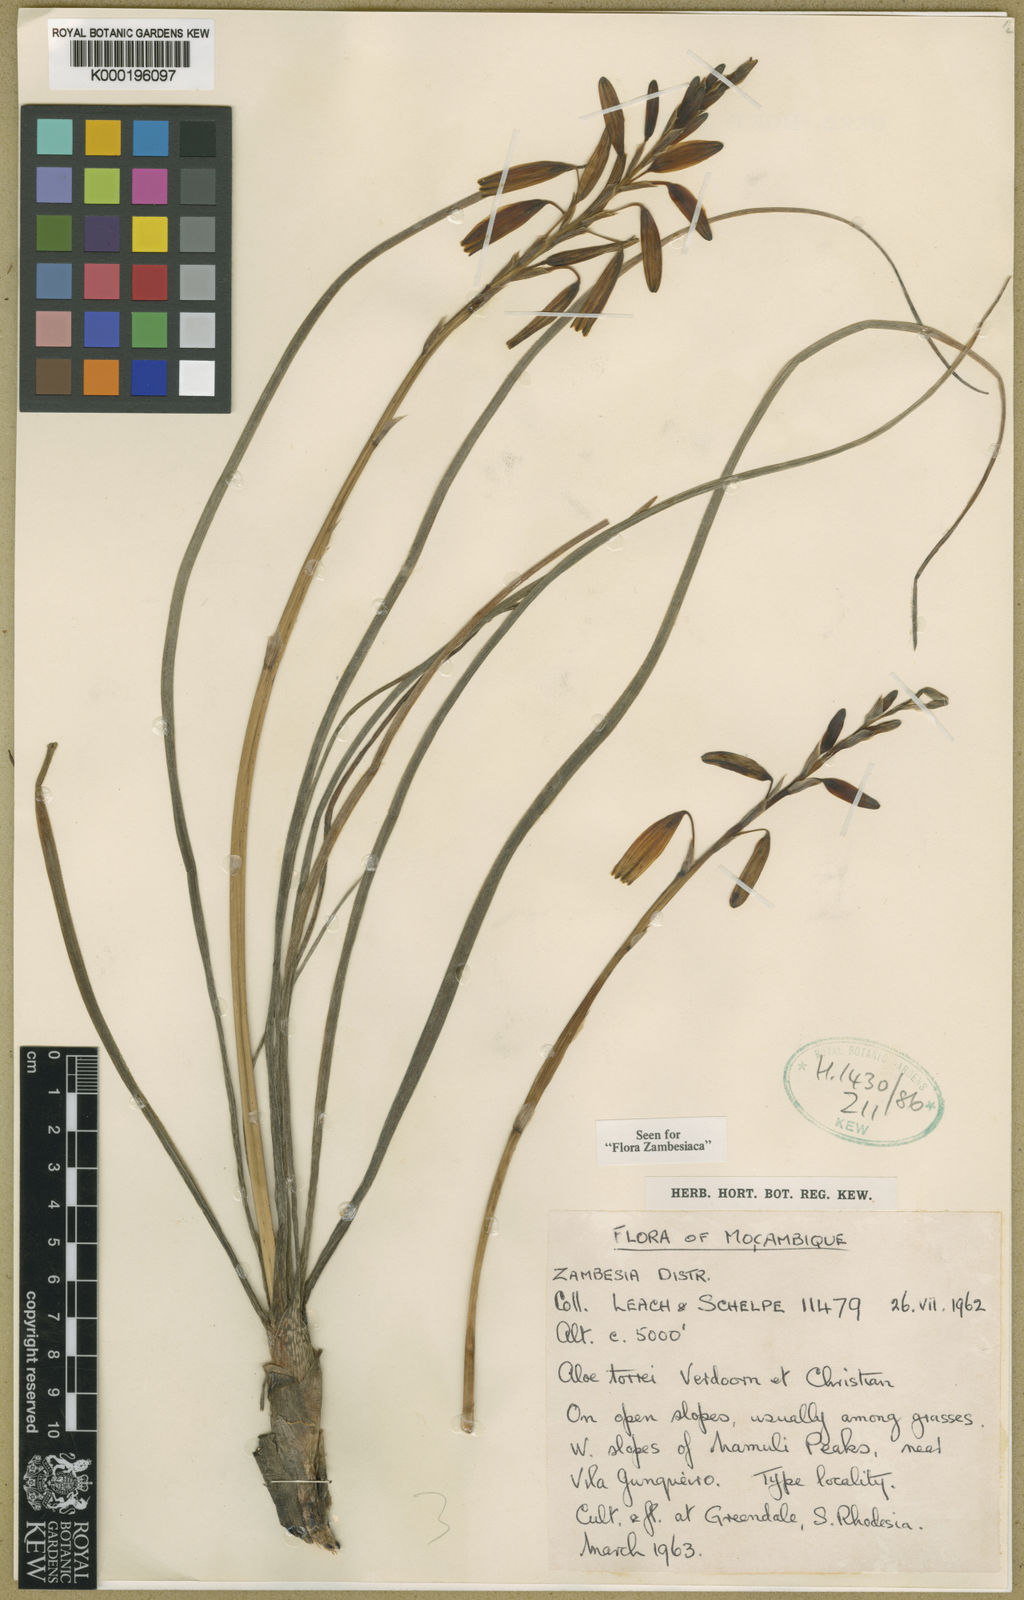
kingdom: Plantae
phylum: Tracheophyta
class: Liliopsida
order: Asparagales
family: Asphodelaceae
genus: Aloe
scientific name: Aloe torrei
